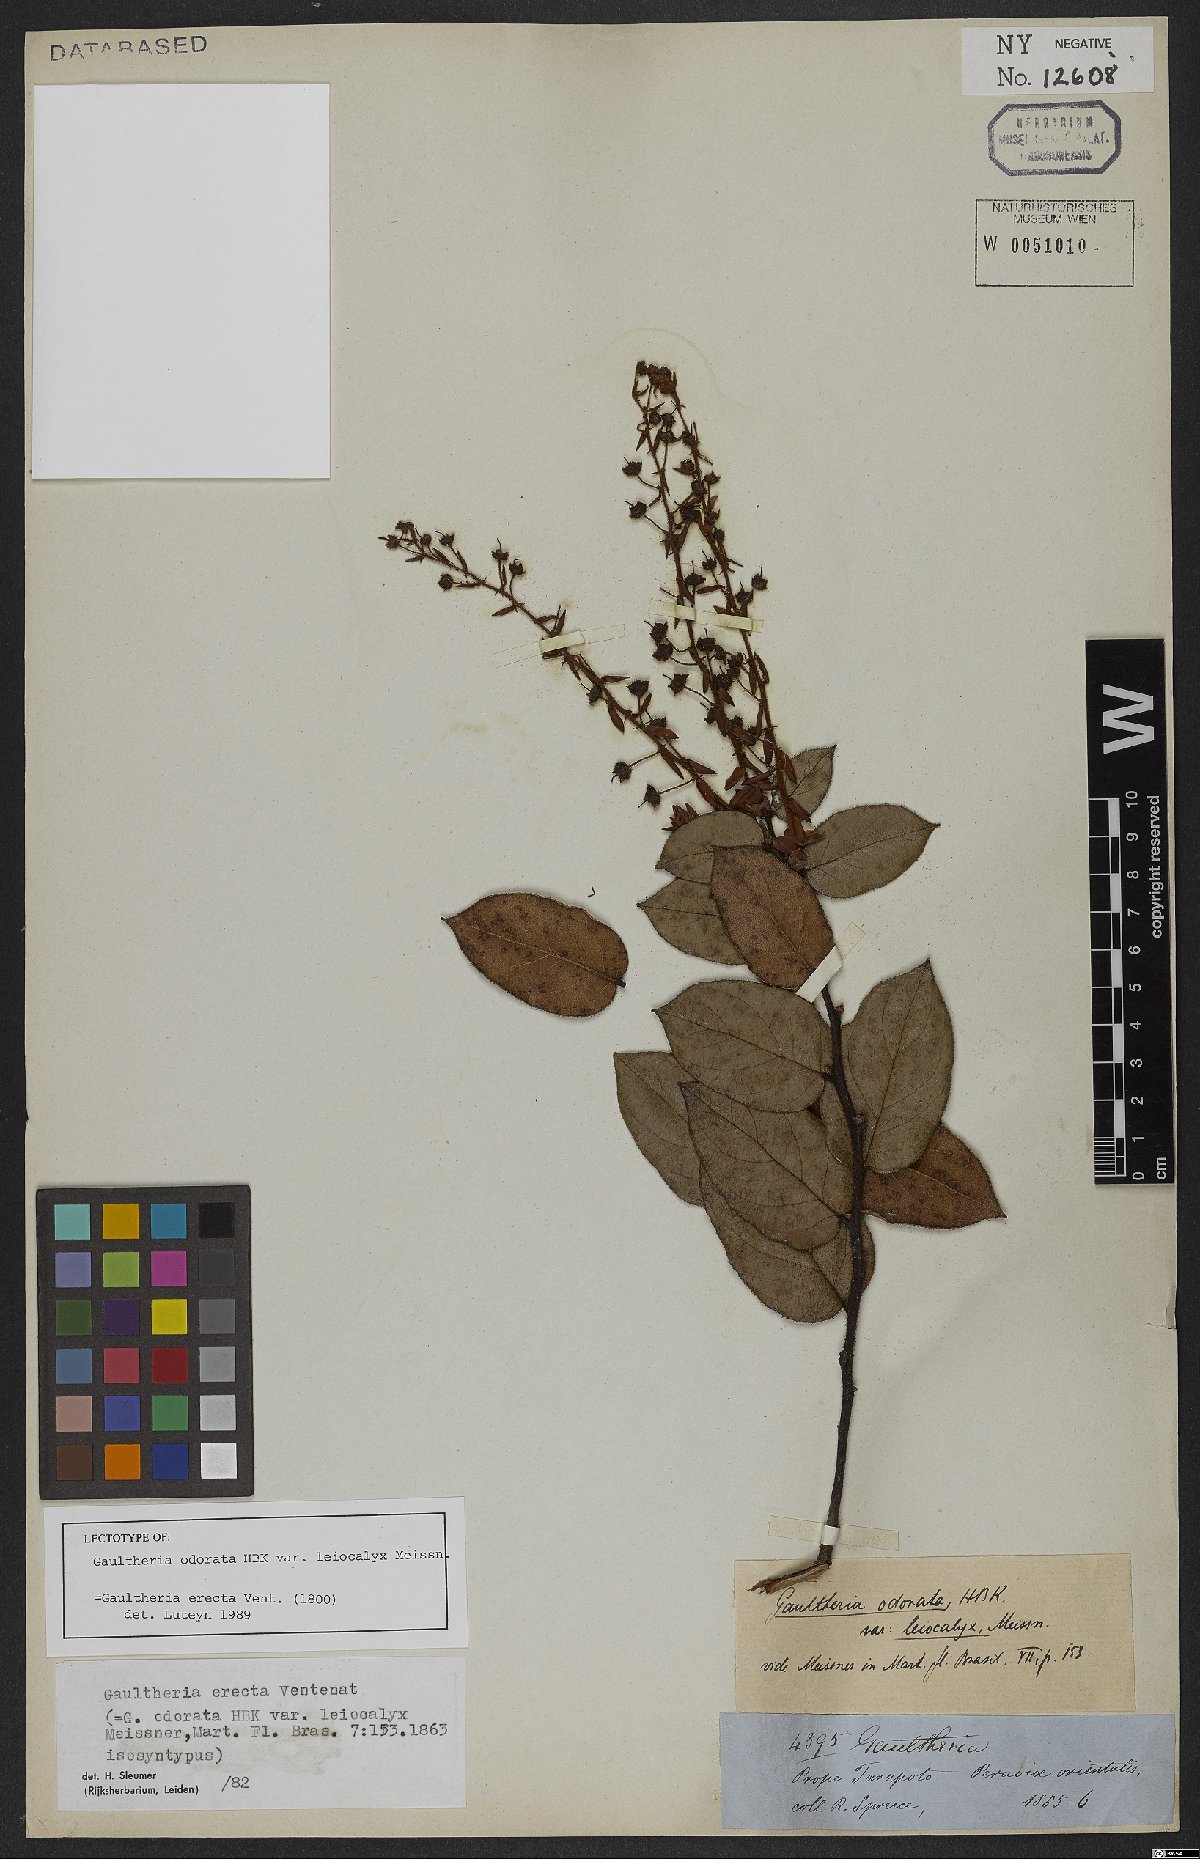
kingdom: Plantae
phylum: Tracheophyta
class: Magnoliopsida
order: Ericales
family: Ericaceae
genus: Gaultheria
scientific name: Gaultheria erecta
